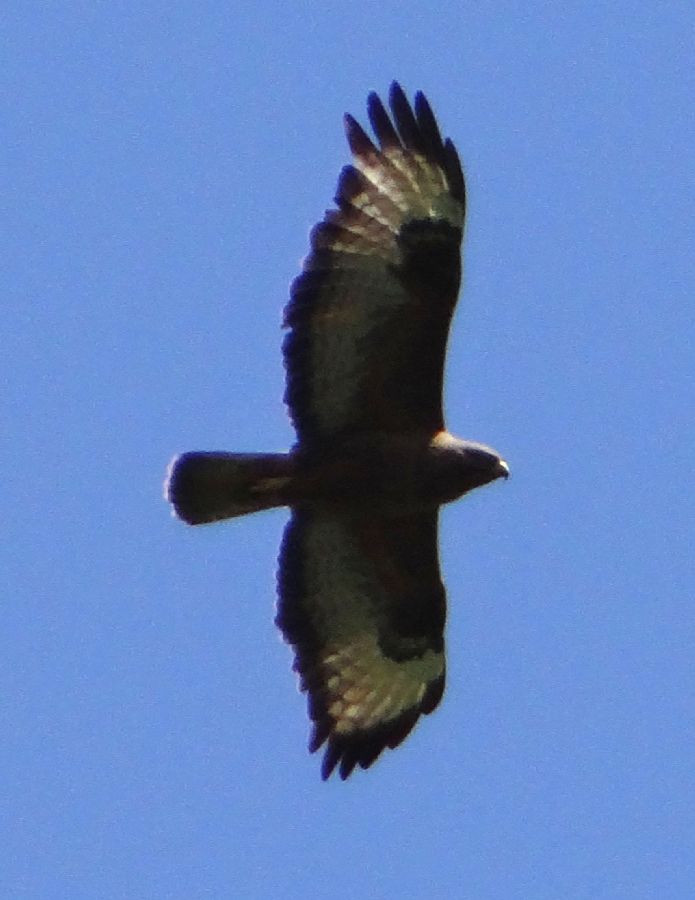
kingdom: Animalia
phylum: Chordata
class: Aves
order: Accipitriformes
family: Accipitridae
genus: Buteo
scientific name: Buteo buteo
